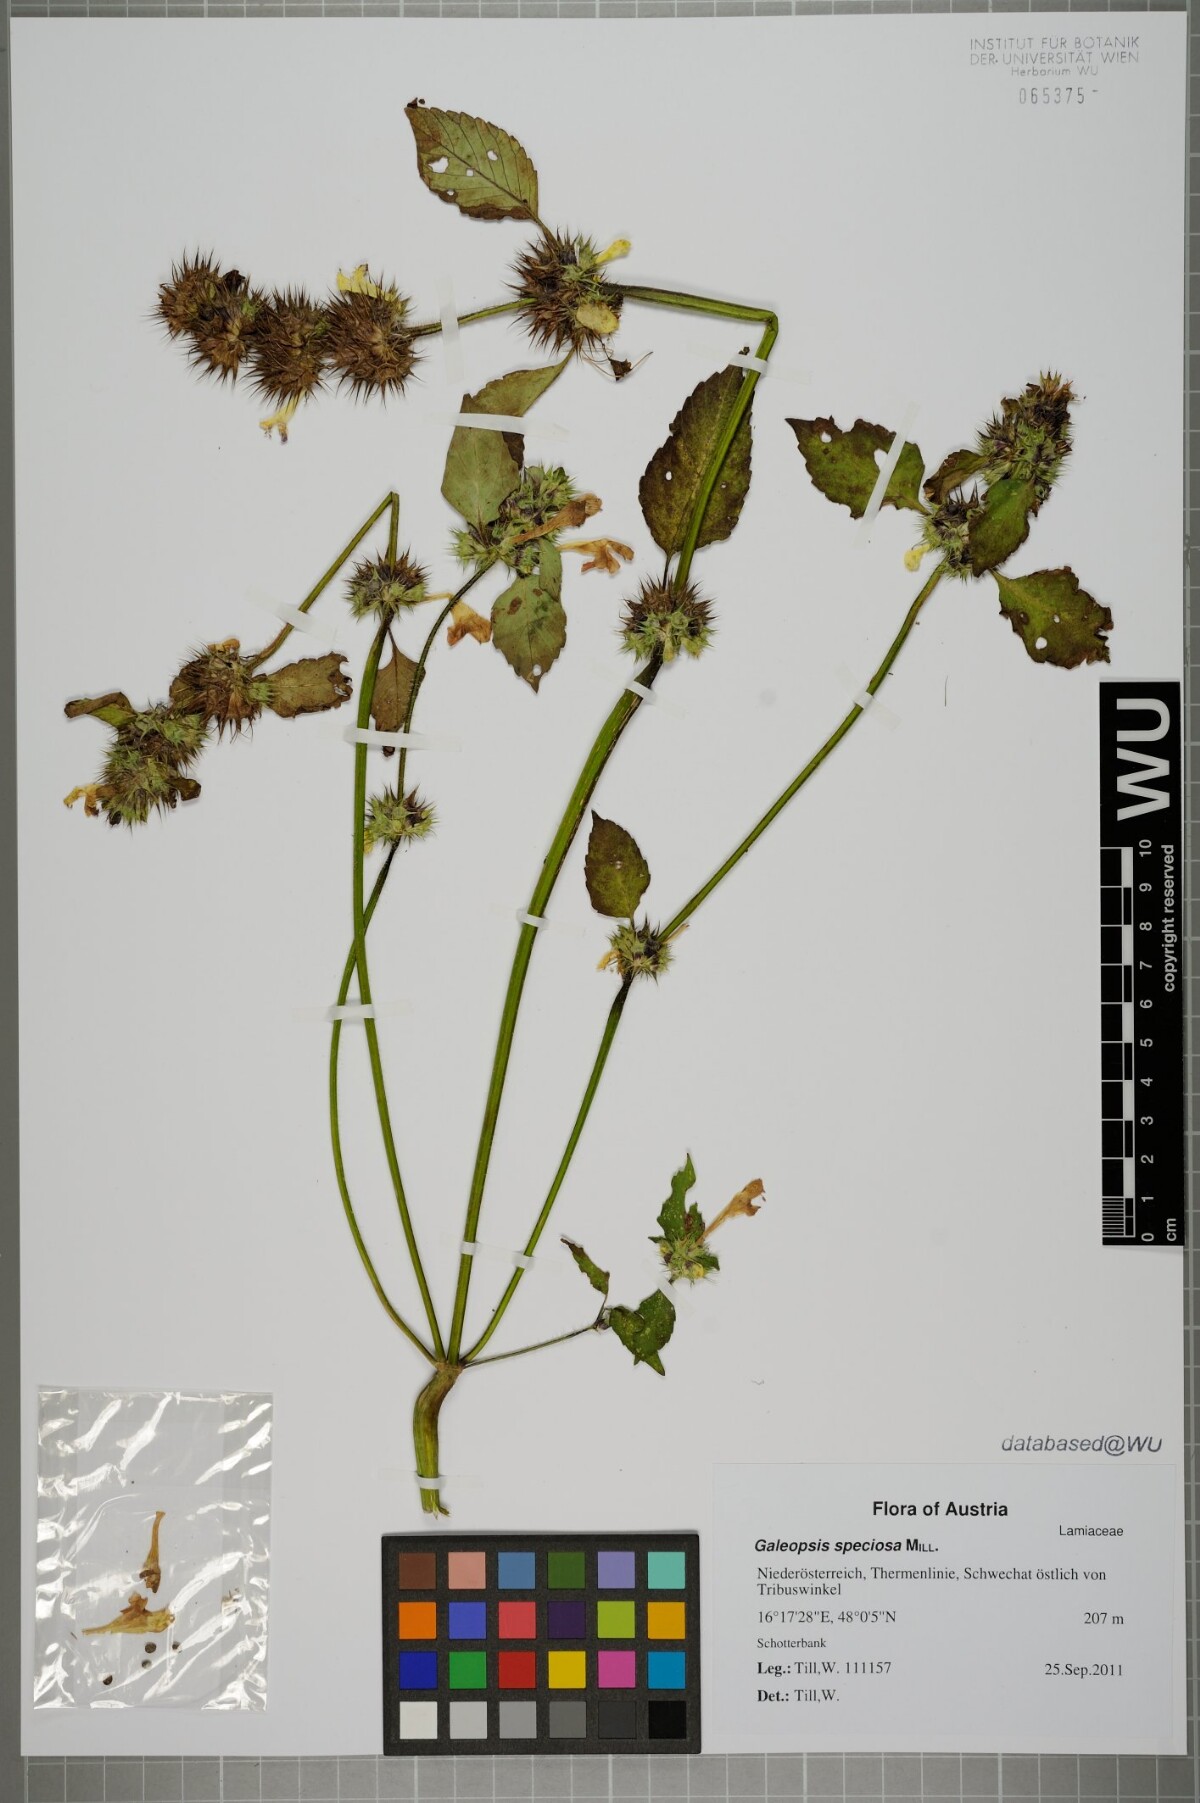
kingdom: Plantae
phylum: Tracheophyta
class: Magnoliopsida
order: Lamiales
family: Lamiaceae
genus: Galeopsis
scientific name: Galeopsis speciosa
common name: Large-flowered hemp-nettle
